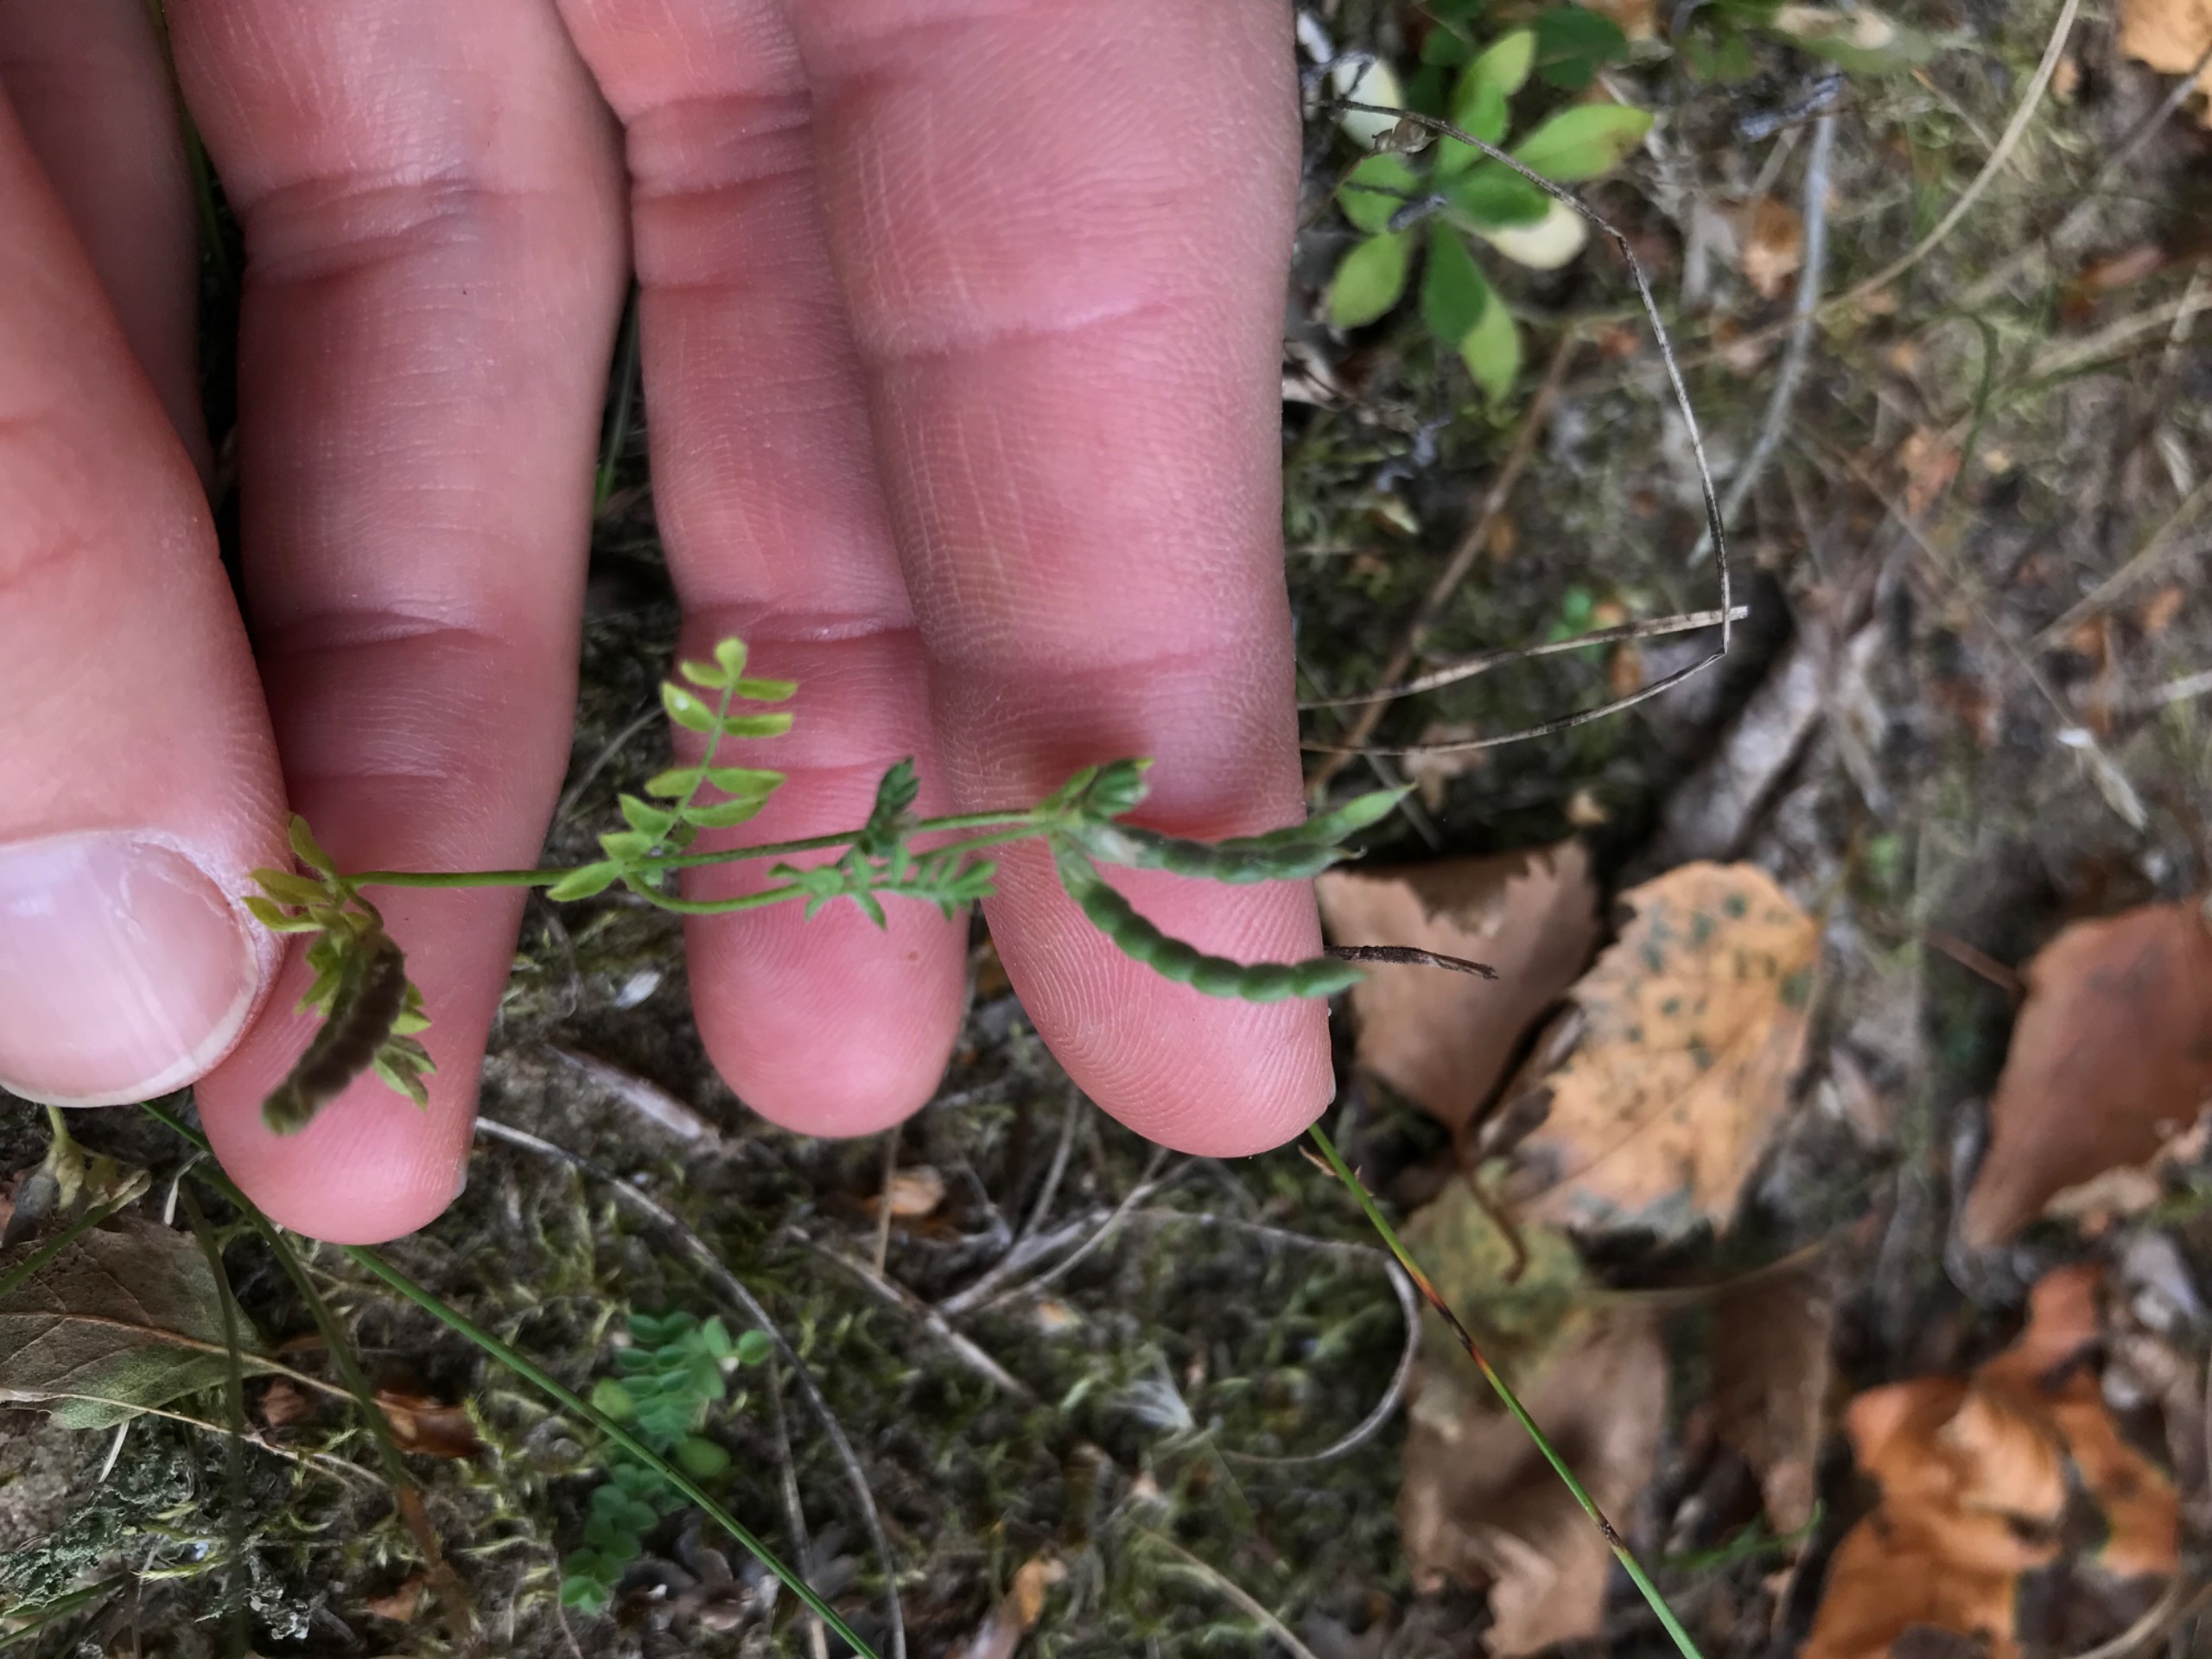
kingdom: Plantae
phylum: Tracheophyta
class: Magnoliopsida
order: Fabales
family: Fabaceae
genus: Ornithopus
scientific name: Ornithopus perpusillus
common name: Liden fugleklo
